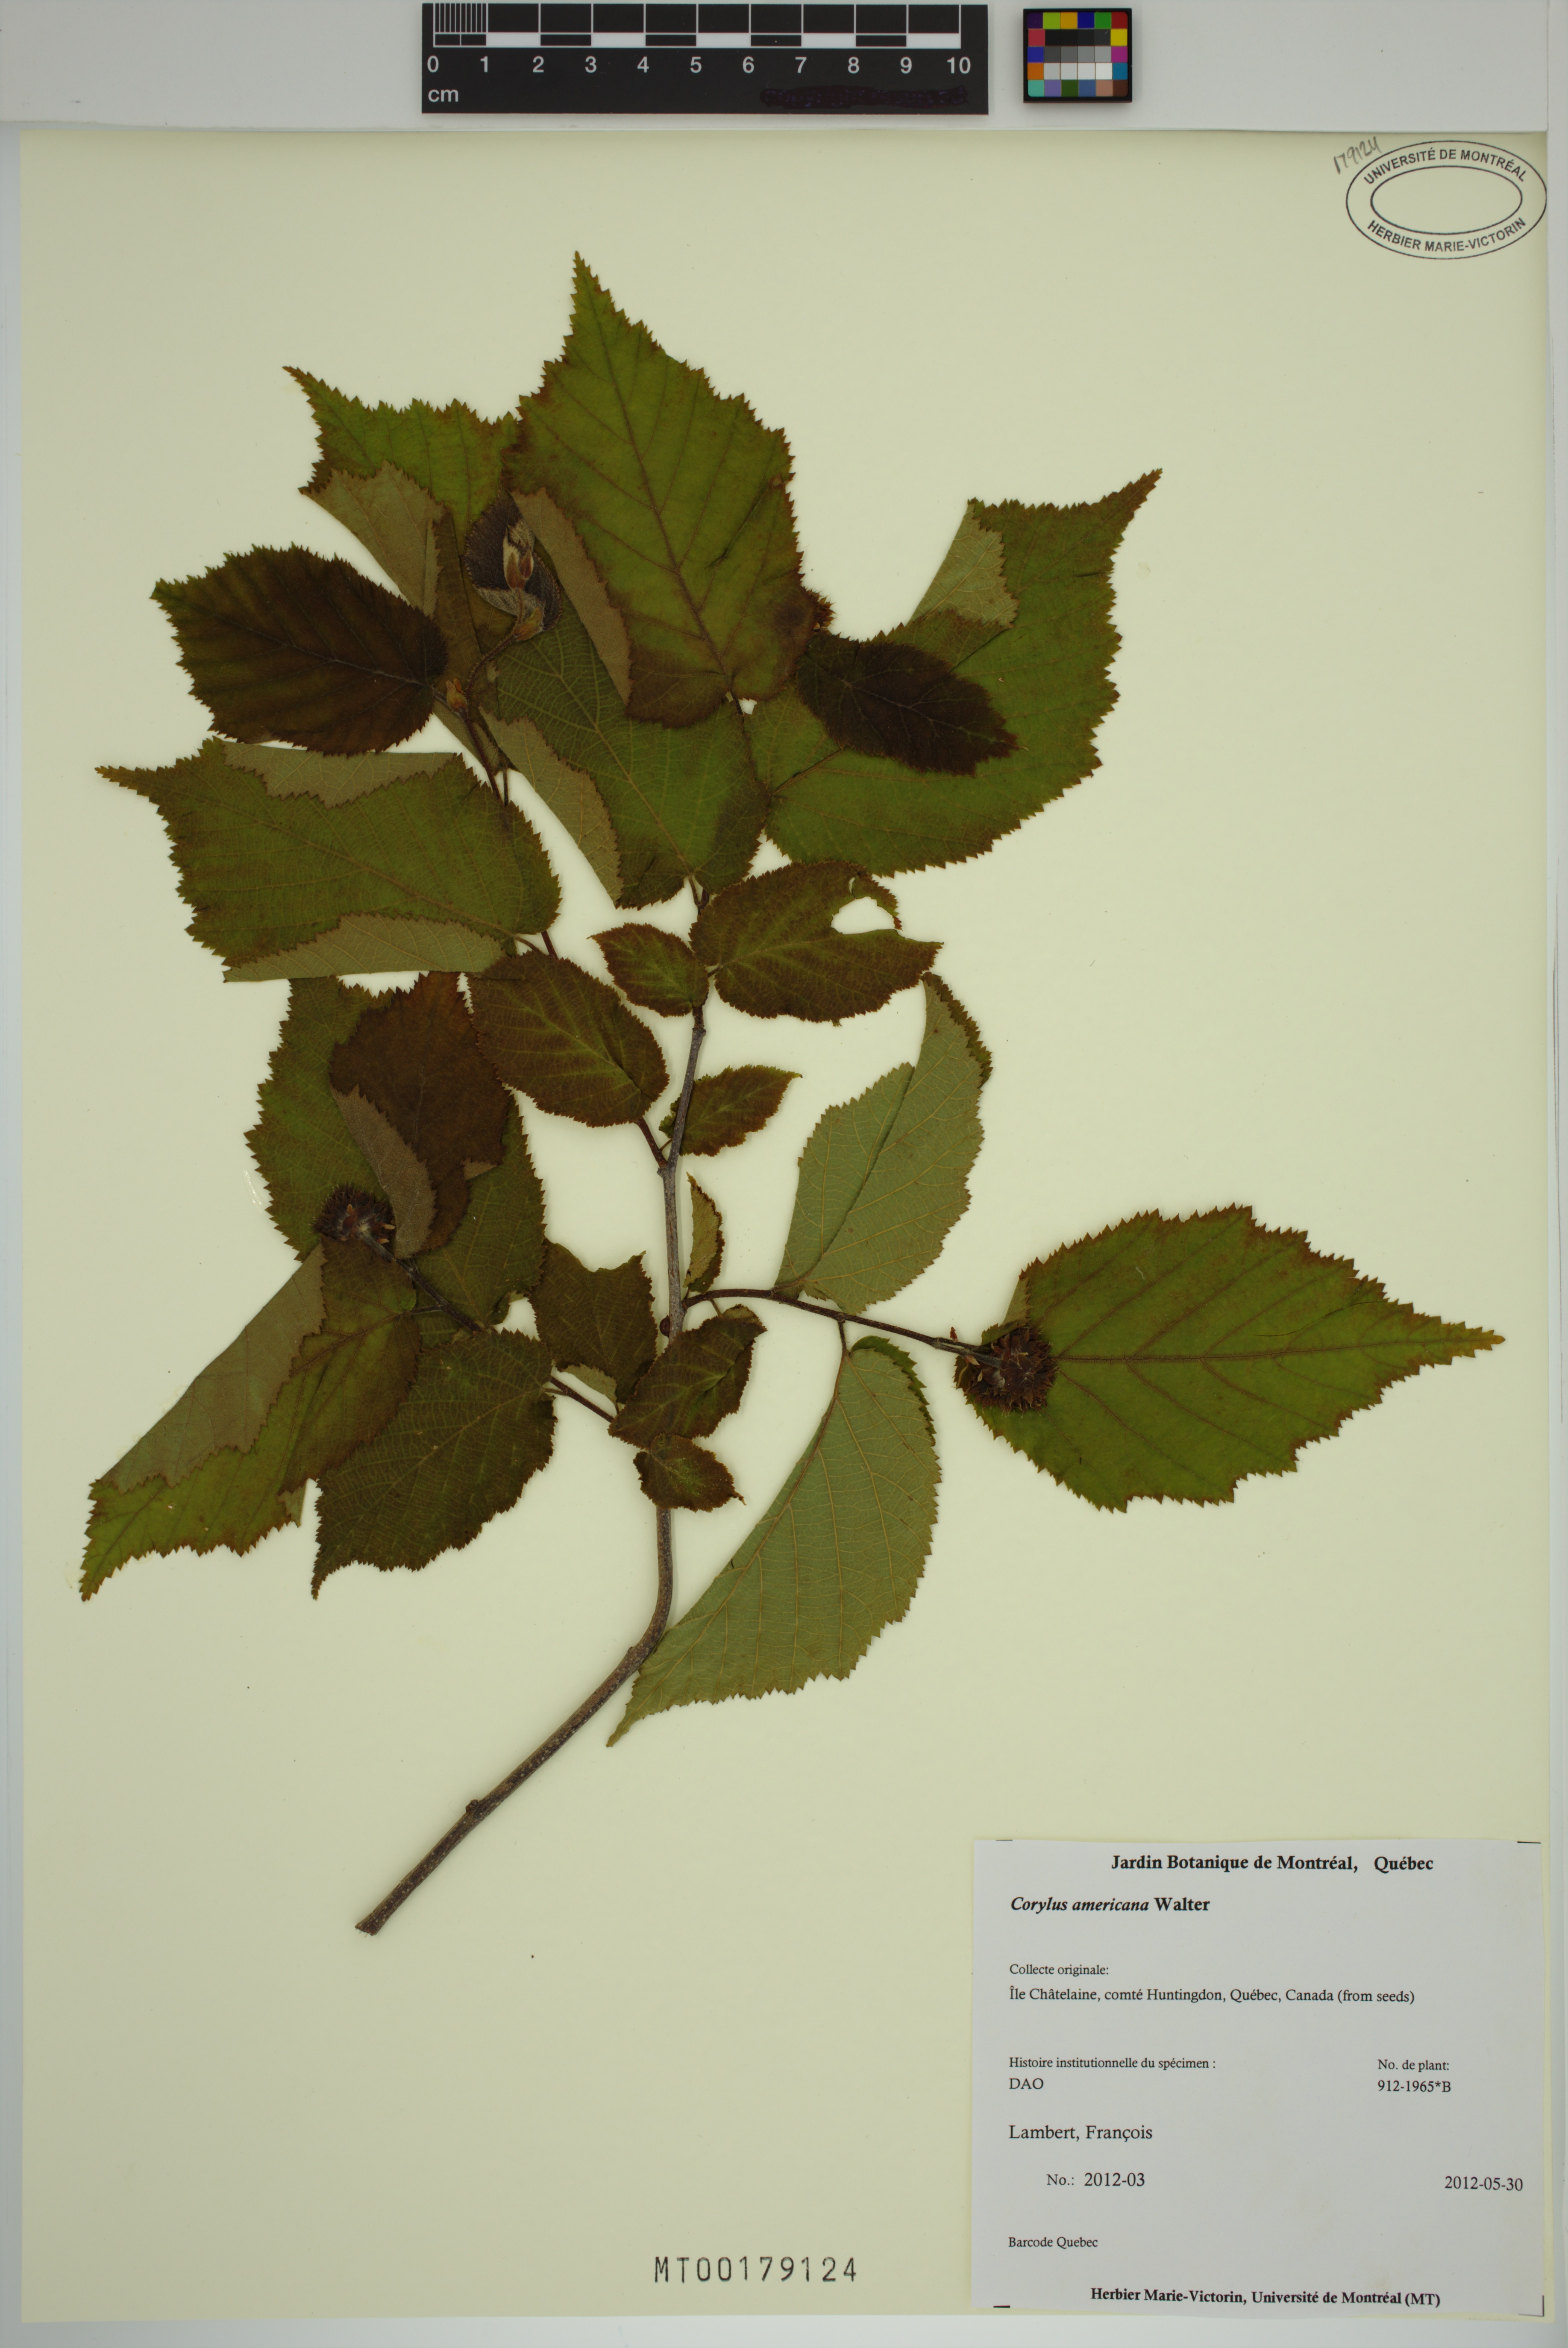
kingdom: Plantae
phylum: Tracheophyta
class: Magnoliopsida
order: Fagales
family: Betulaceae
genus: Corylus
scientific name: Corylus americana
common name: American hazel
